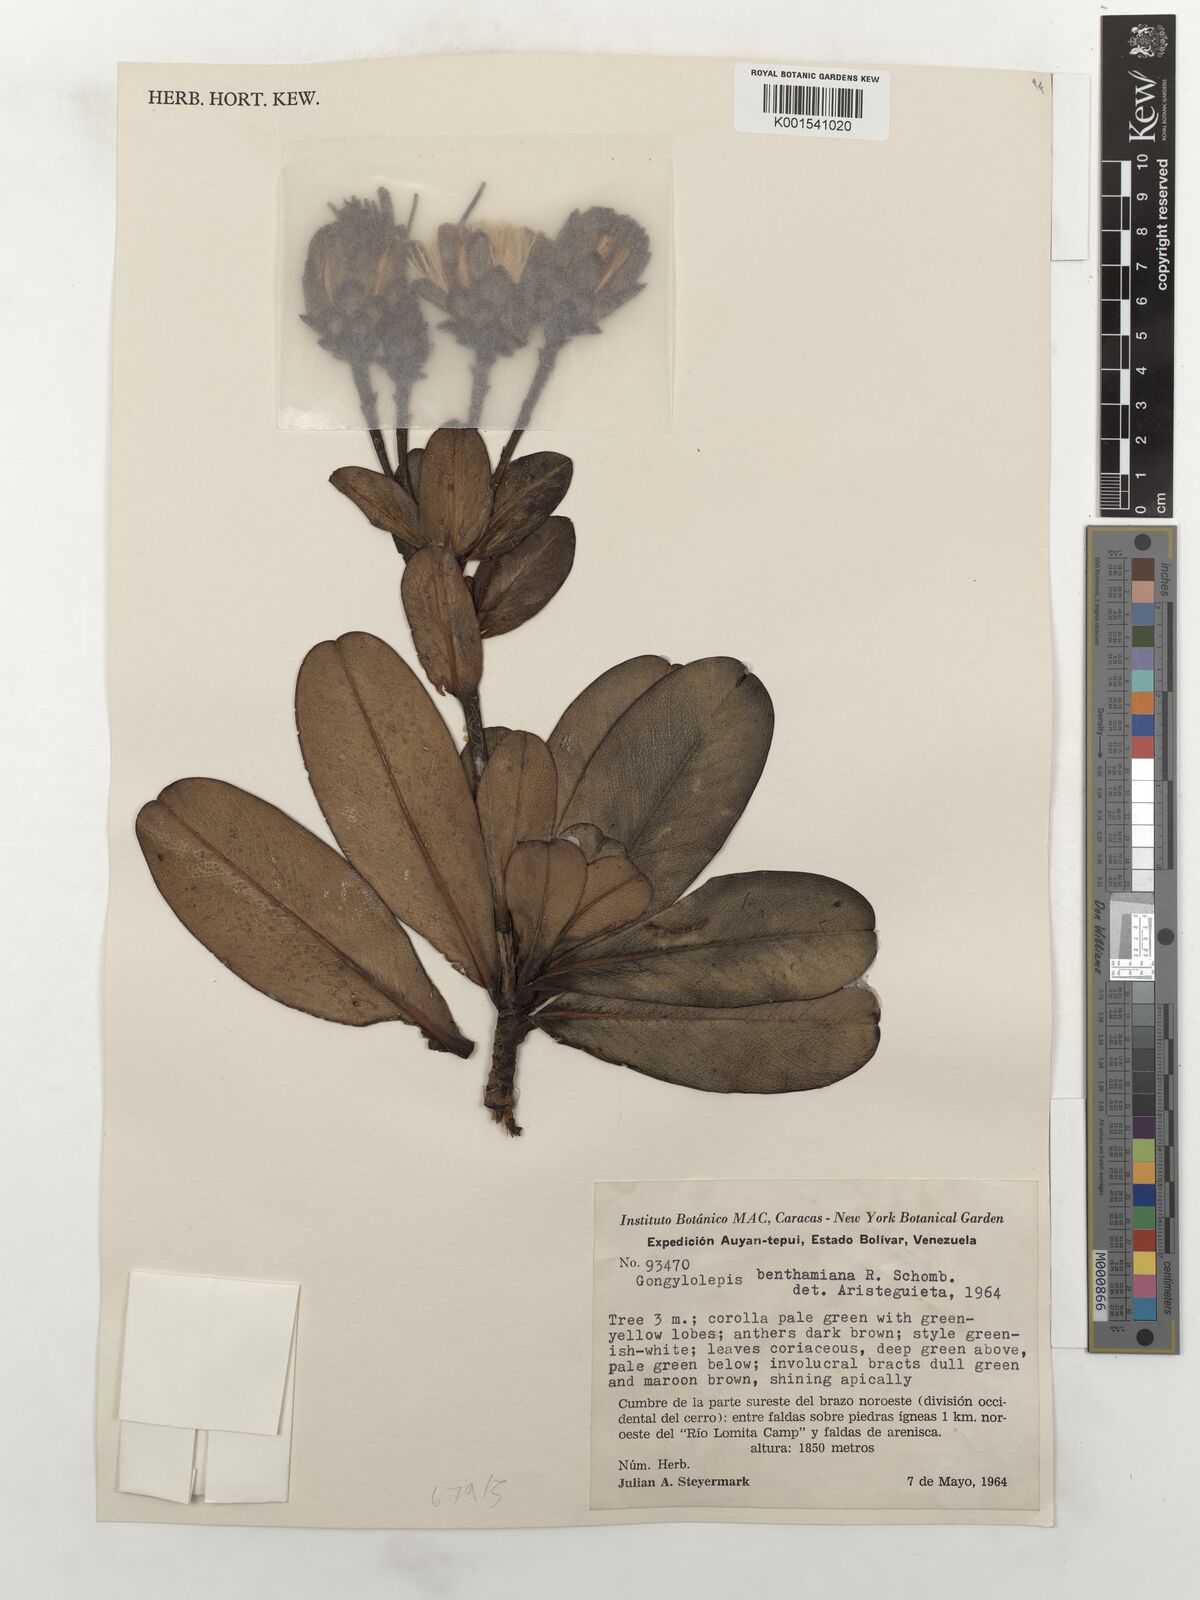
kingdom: Plantae
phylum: Tracheophyta
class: Magnoliopsida
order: Asterales
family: Asteraceae
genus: Gongylolepis
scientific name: Gongylolepis benthamiana
